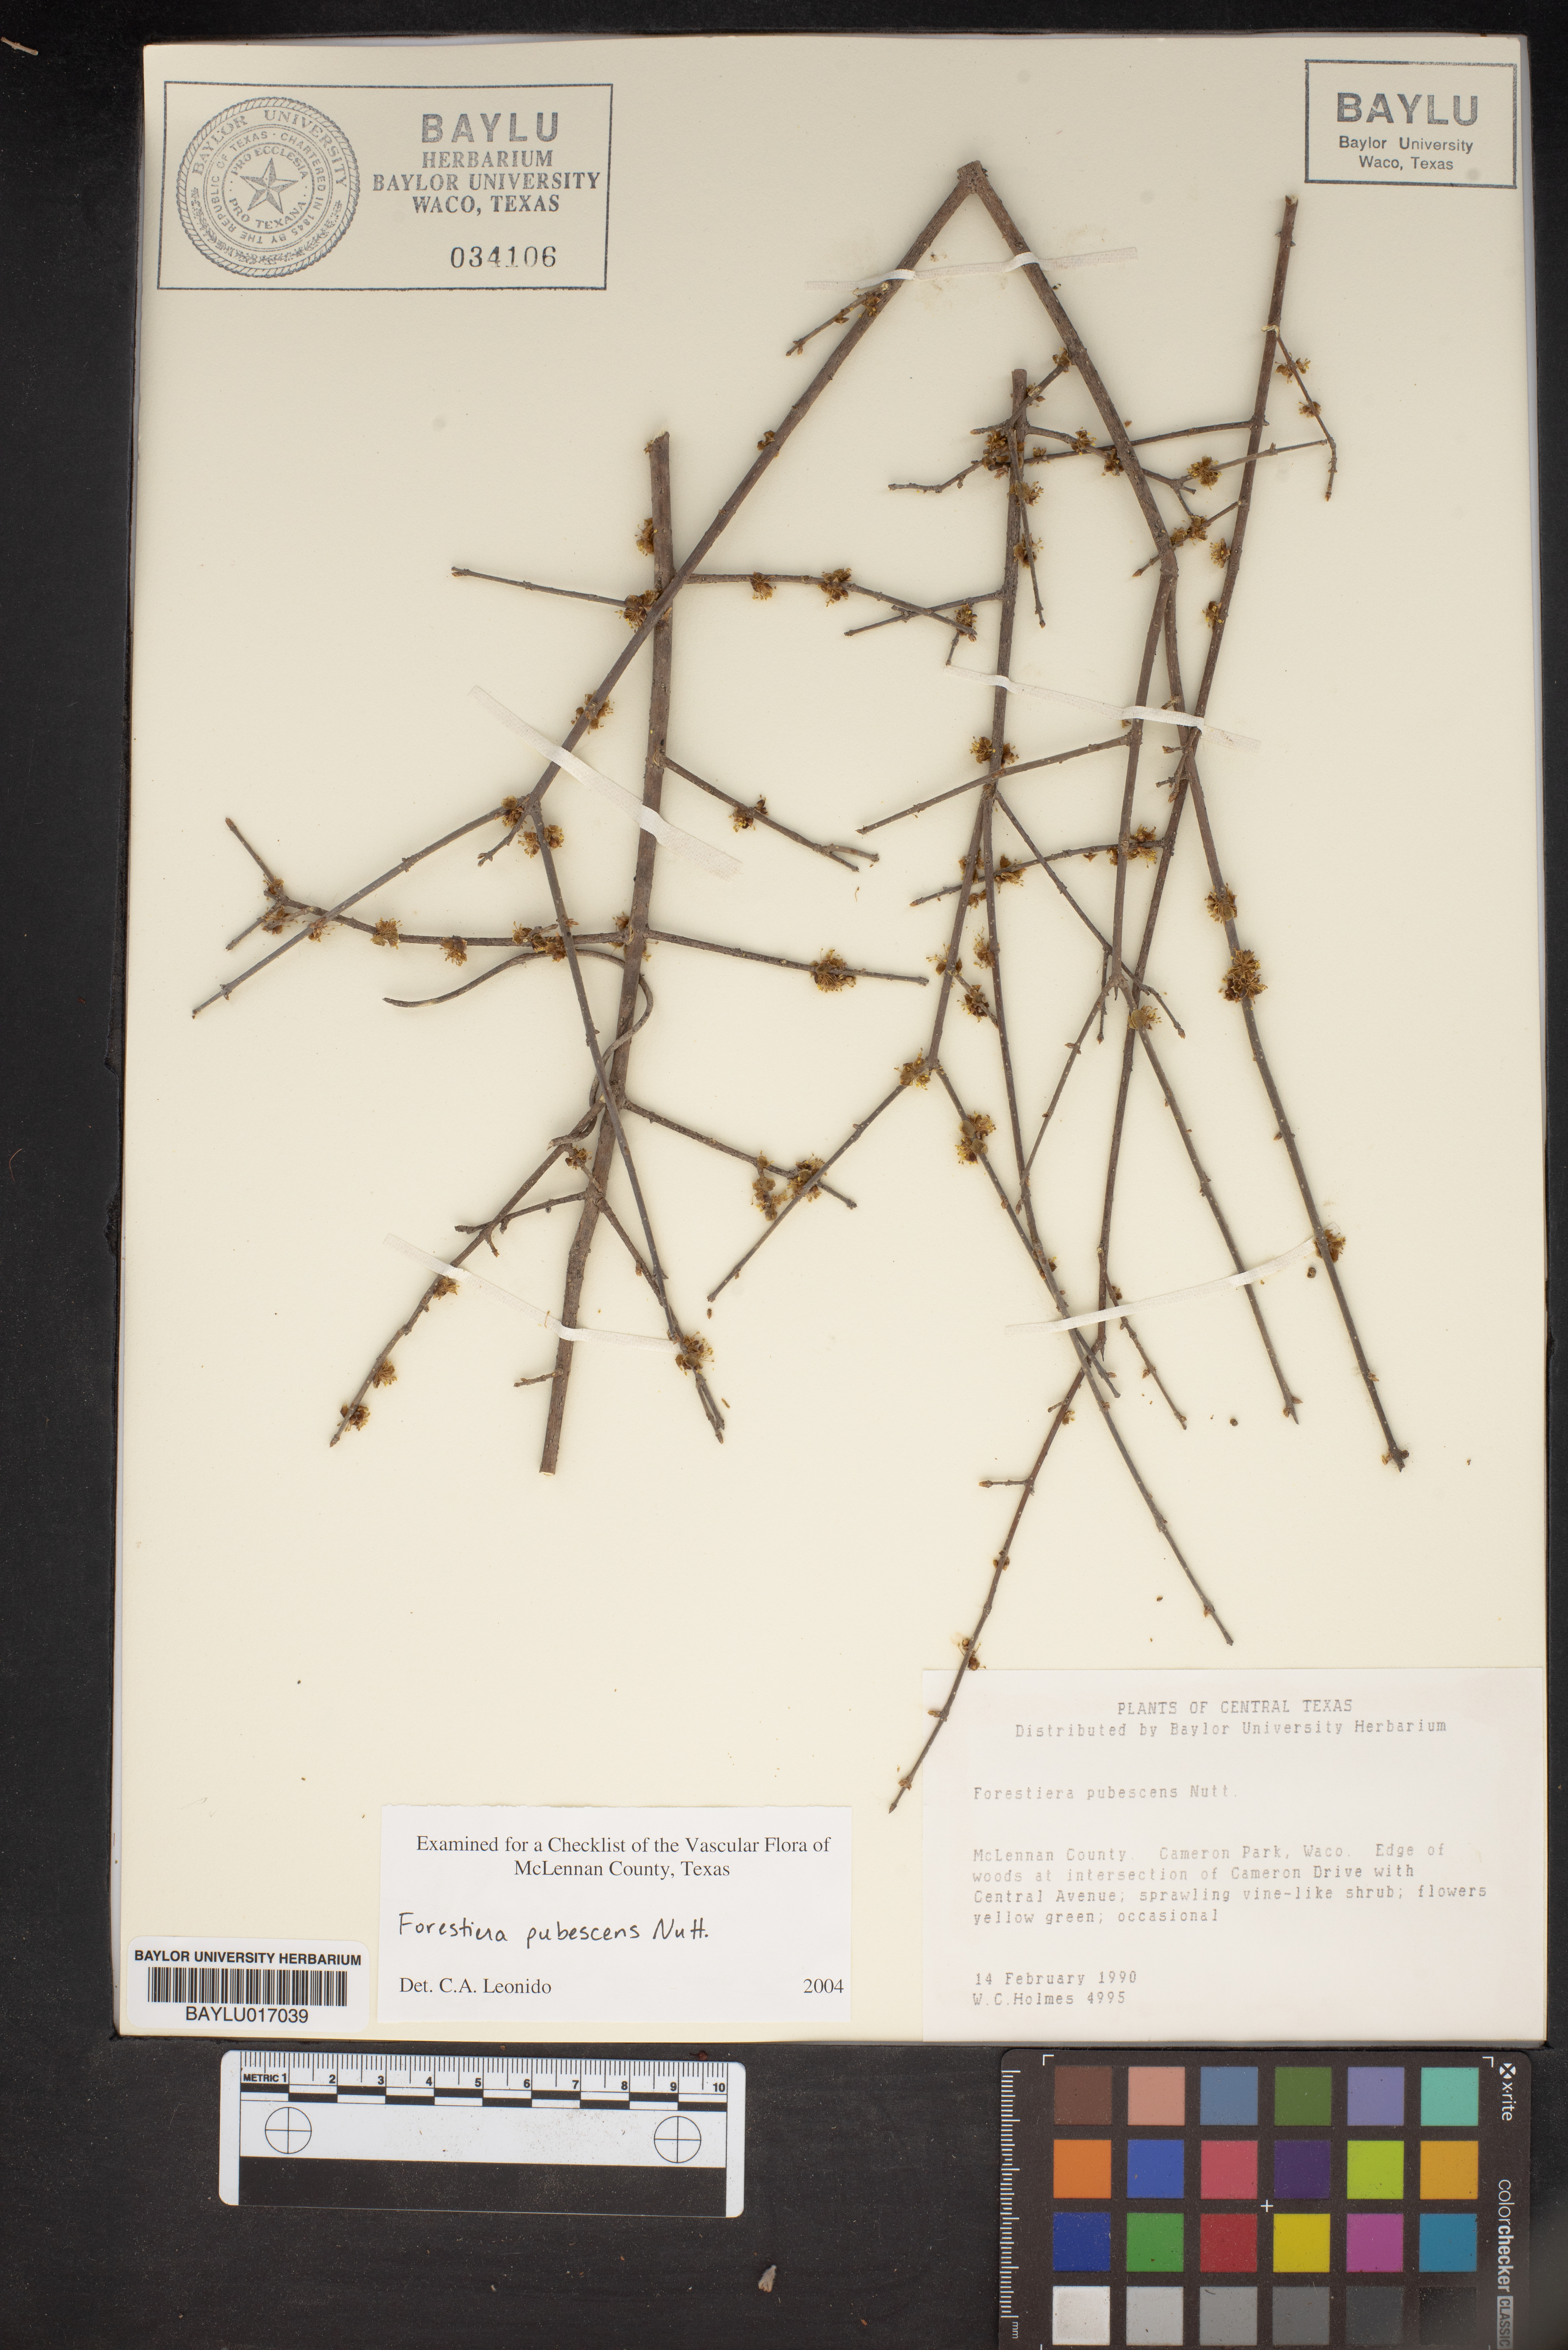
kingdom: Plantae
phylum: Tracheophyta
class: Magnoliopsida
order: Lamiales
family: Oleaceae
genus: Forestiera
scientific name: Forestiera pubescens
